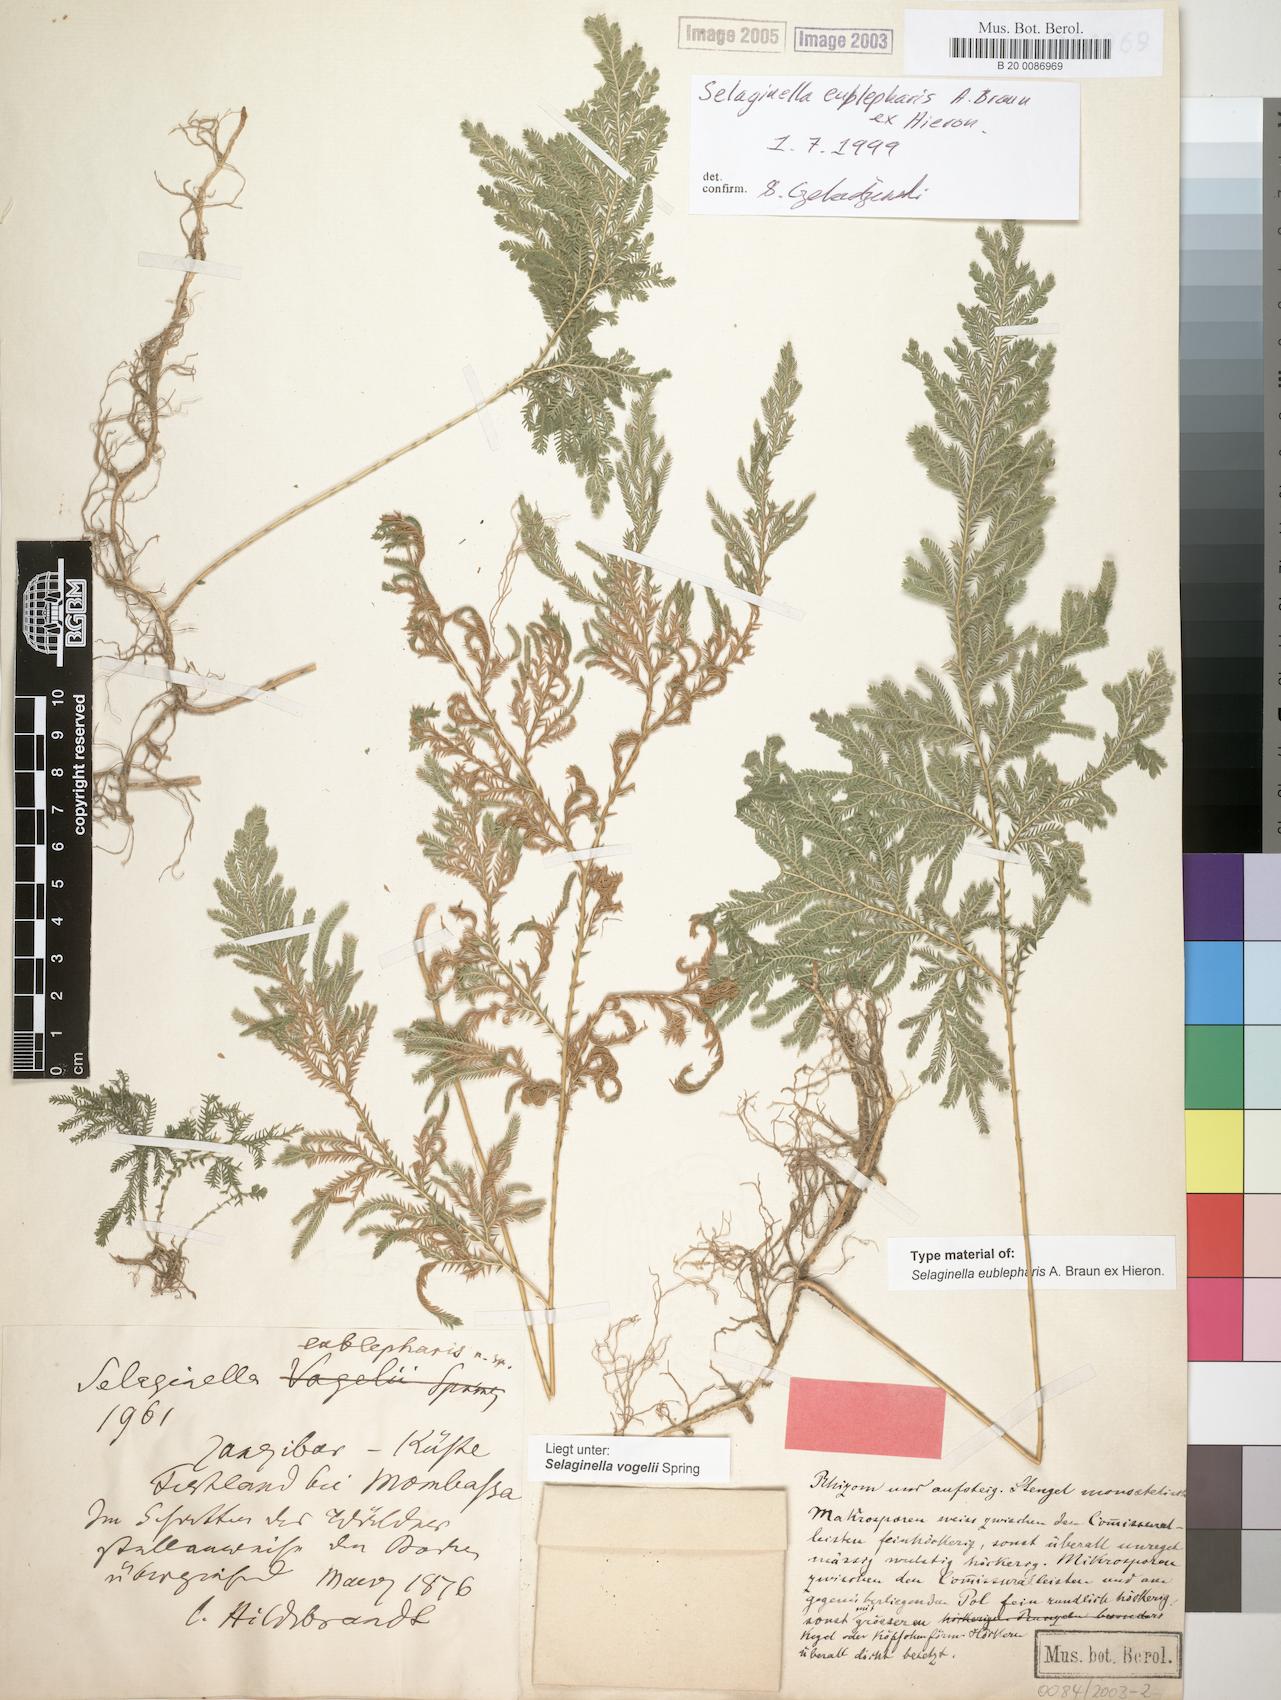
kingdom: Plantae
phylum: Tracheophyta
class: Lycopodiopsida
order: Selaginellales
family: Selaginellaceae
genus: Selaginella
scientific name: Selaginella eublepharis
